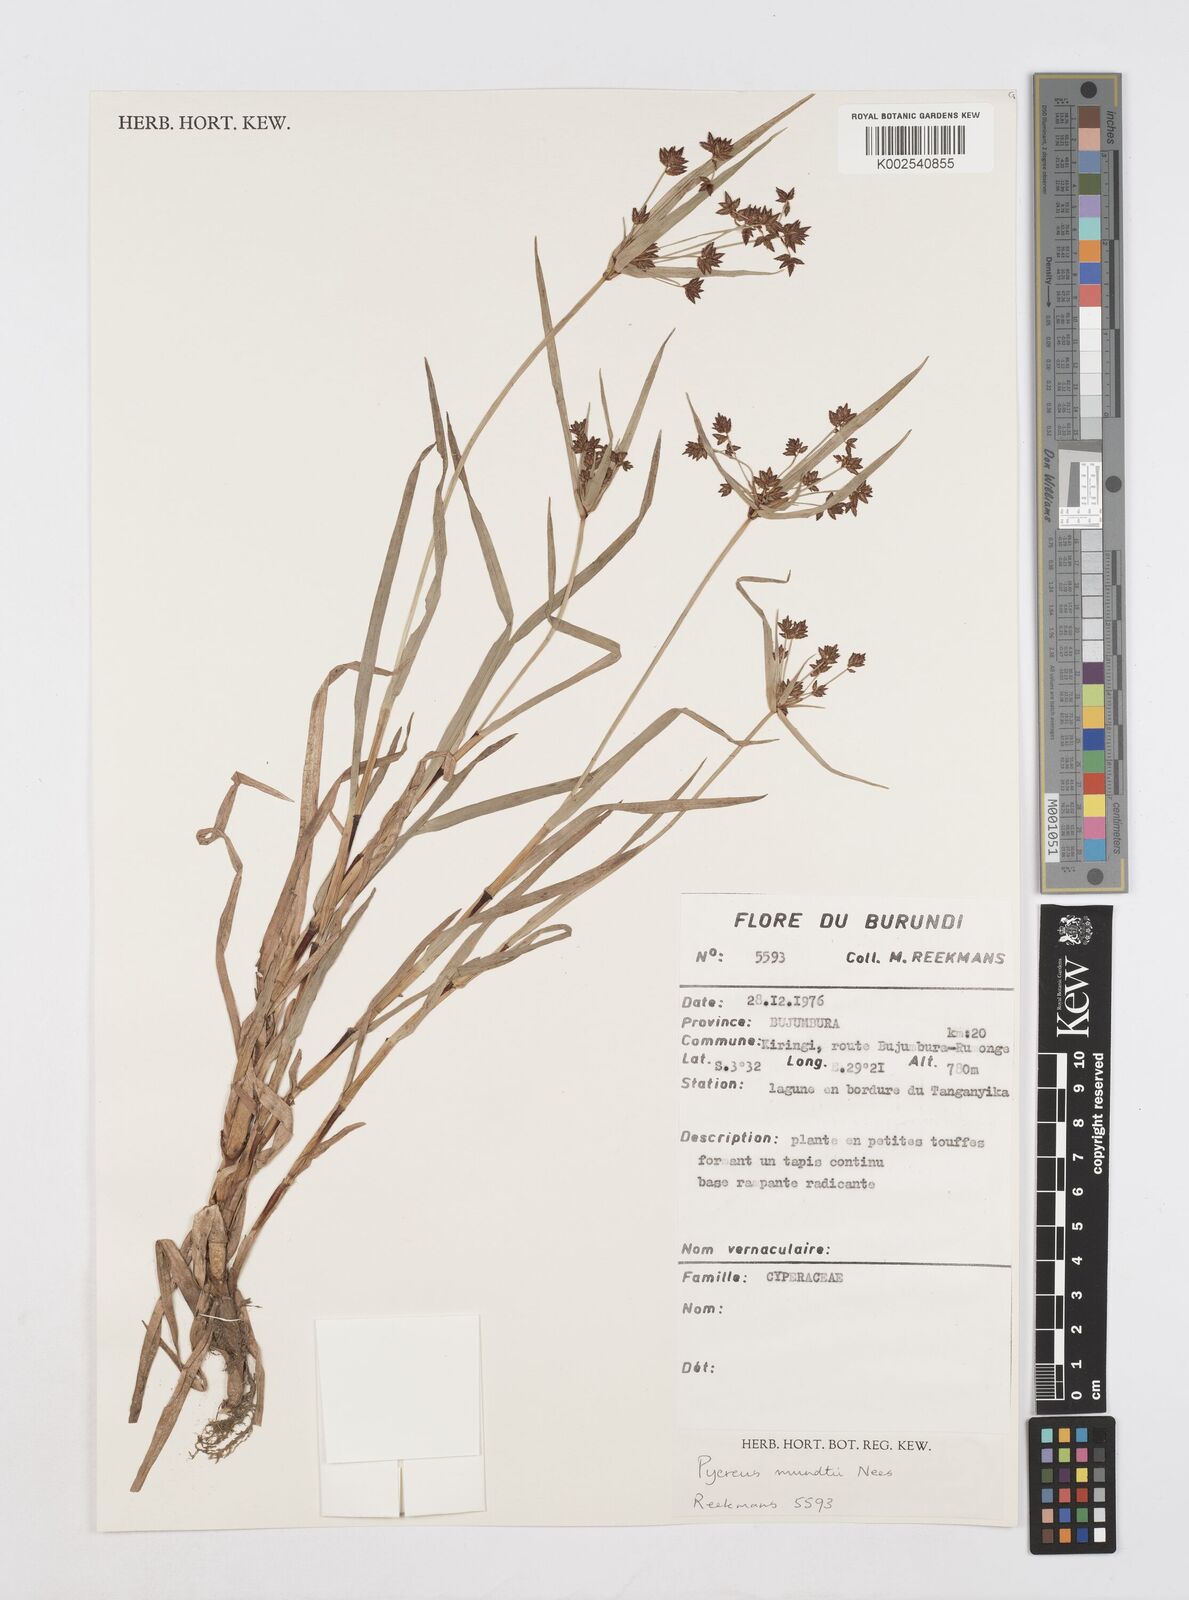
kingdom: Plantae
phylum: Tracheophyta
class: Liliopsida
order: Poales
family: Cyperaceae
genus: Cyperus
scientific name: Cyperus mundii
